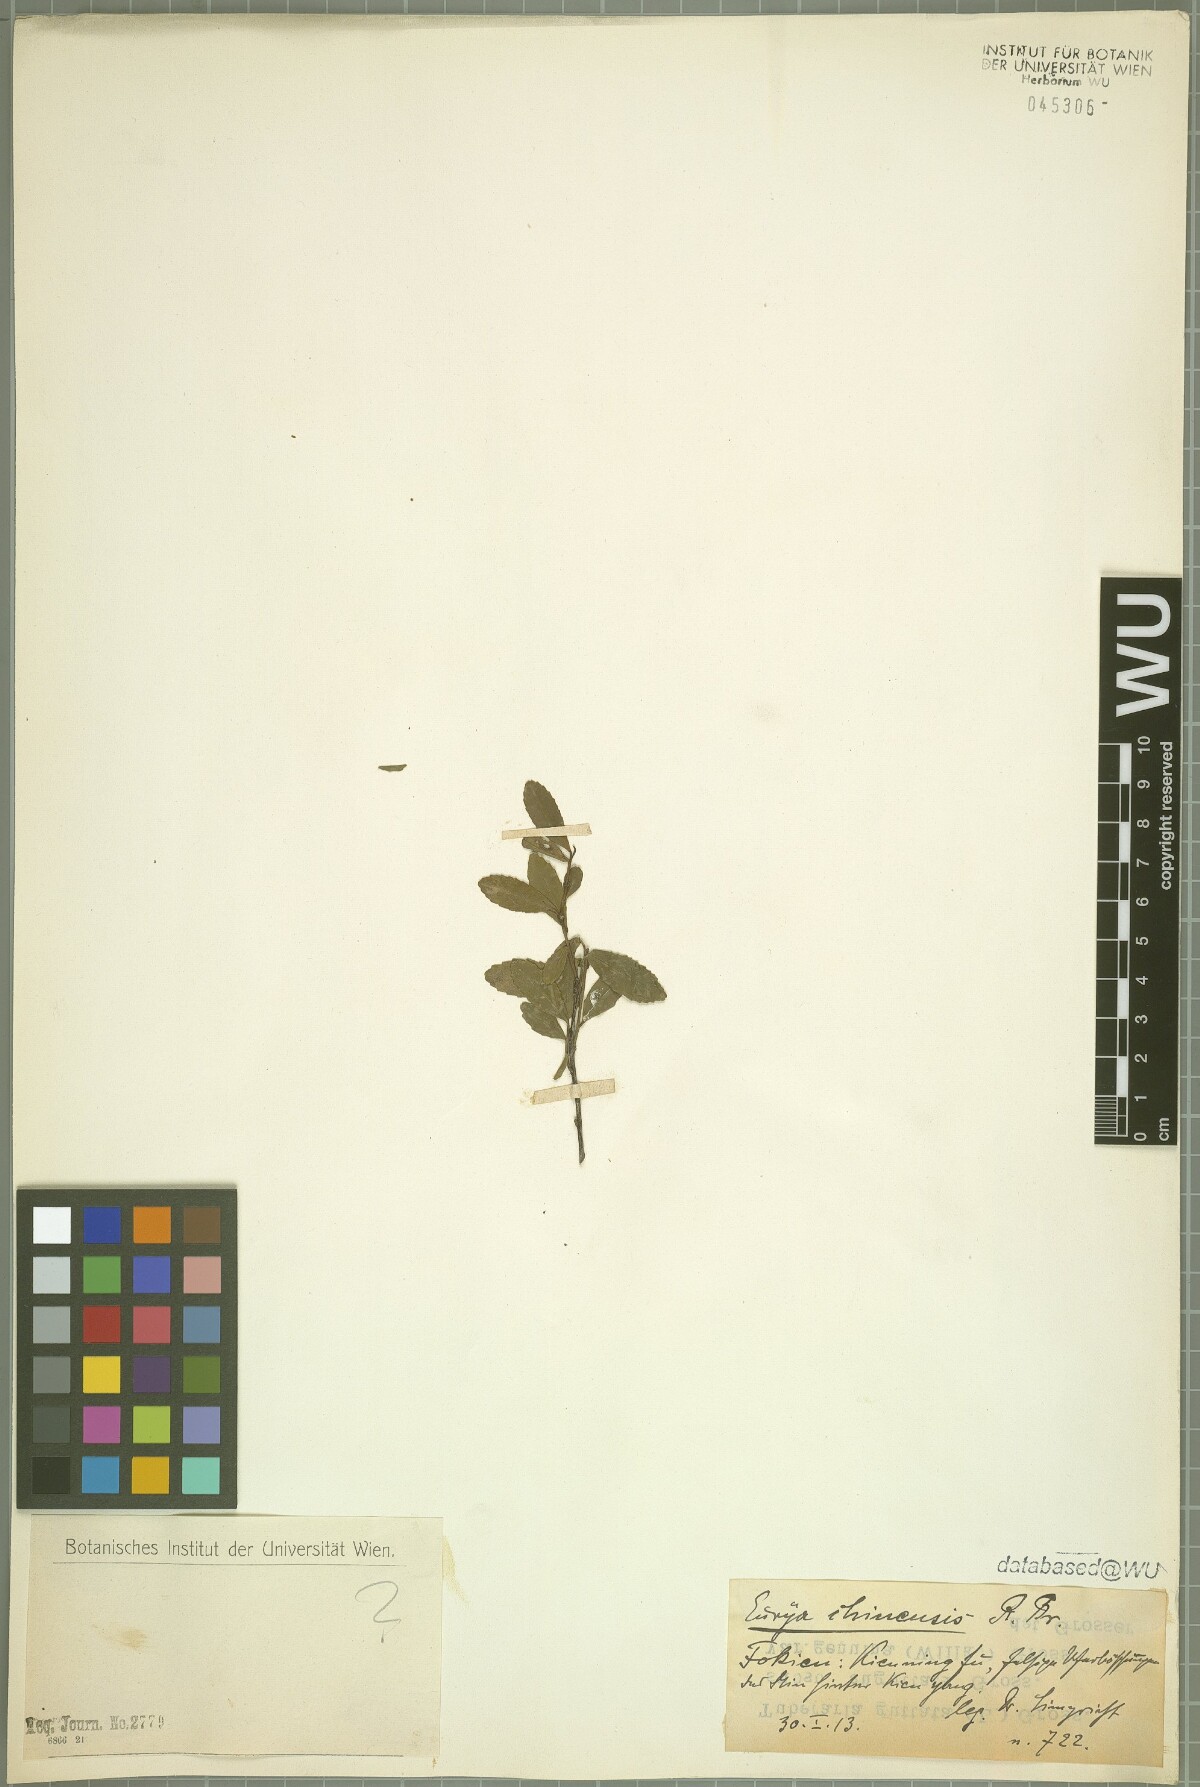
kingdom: Plantae
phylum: Tracheophyta
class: Magnoliopsida
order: Ericales
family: Pentaphylacaceae
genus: Eurya
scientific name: Eurya chinensis
